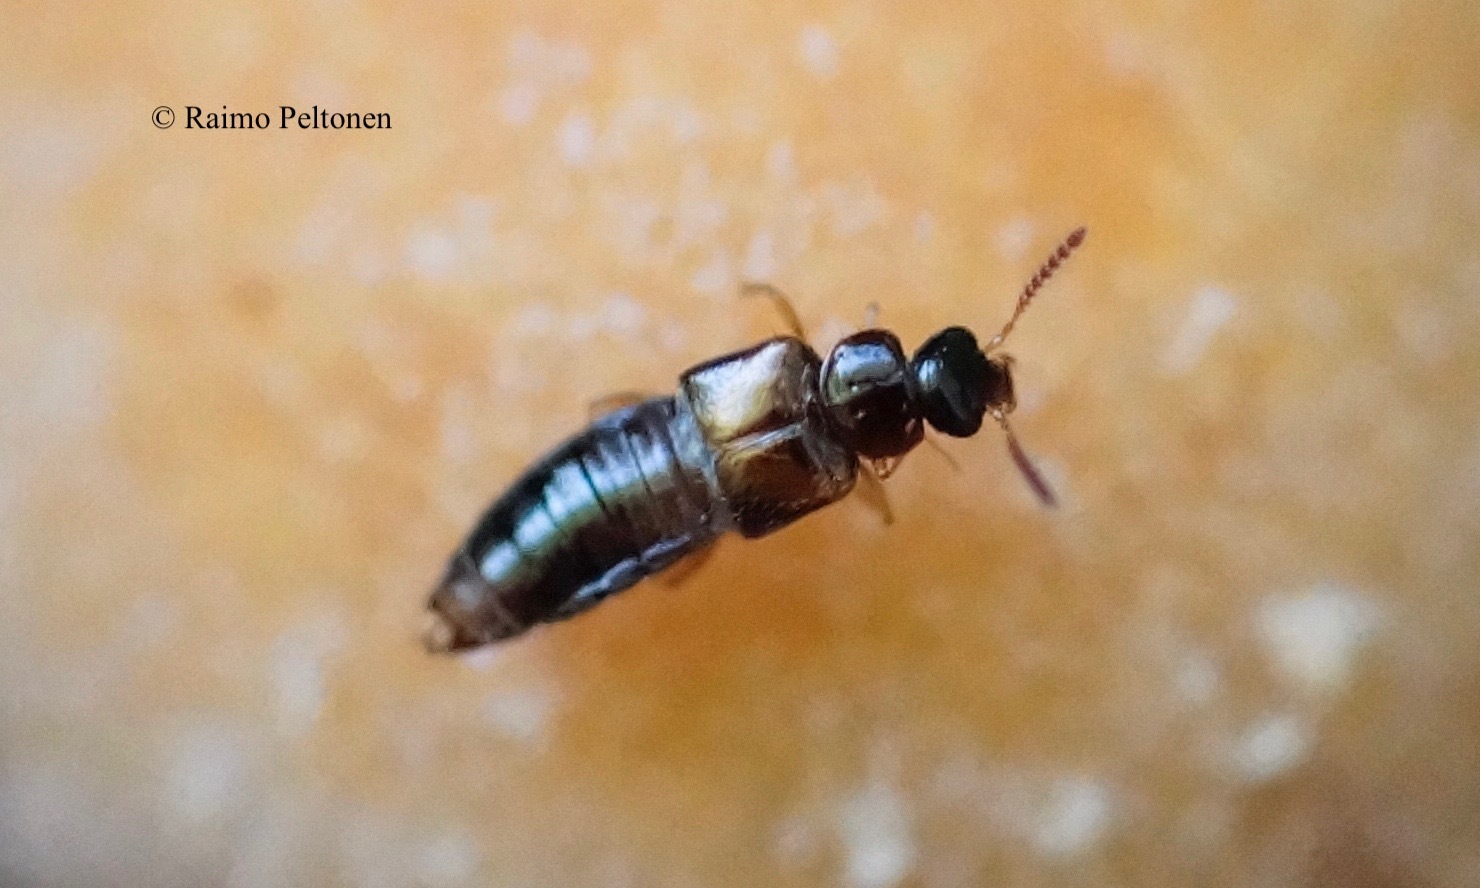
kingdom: Animalia
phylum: Arthropoda
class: Insecta
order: Coleoptera
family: Staphylinidae
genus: Gyrophaena
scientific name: Gyrophaena
